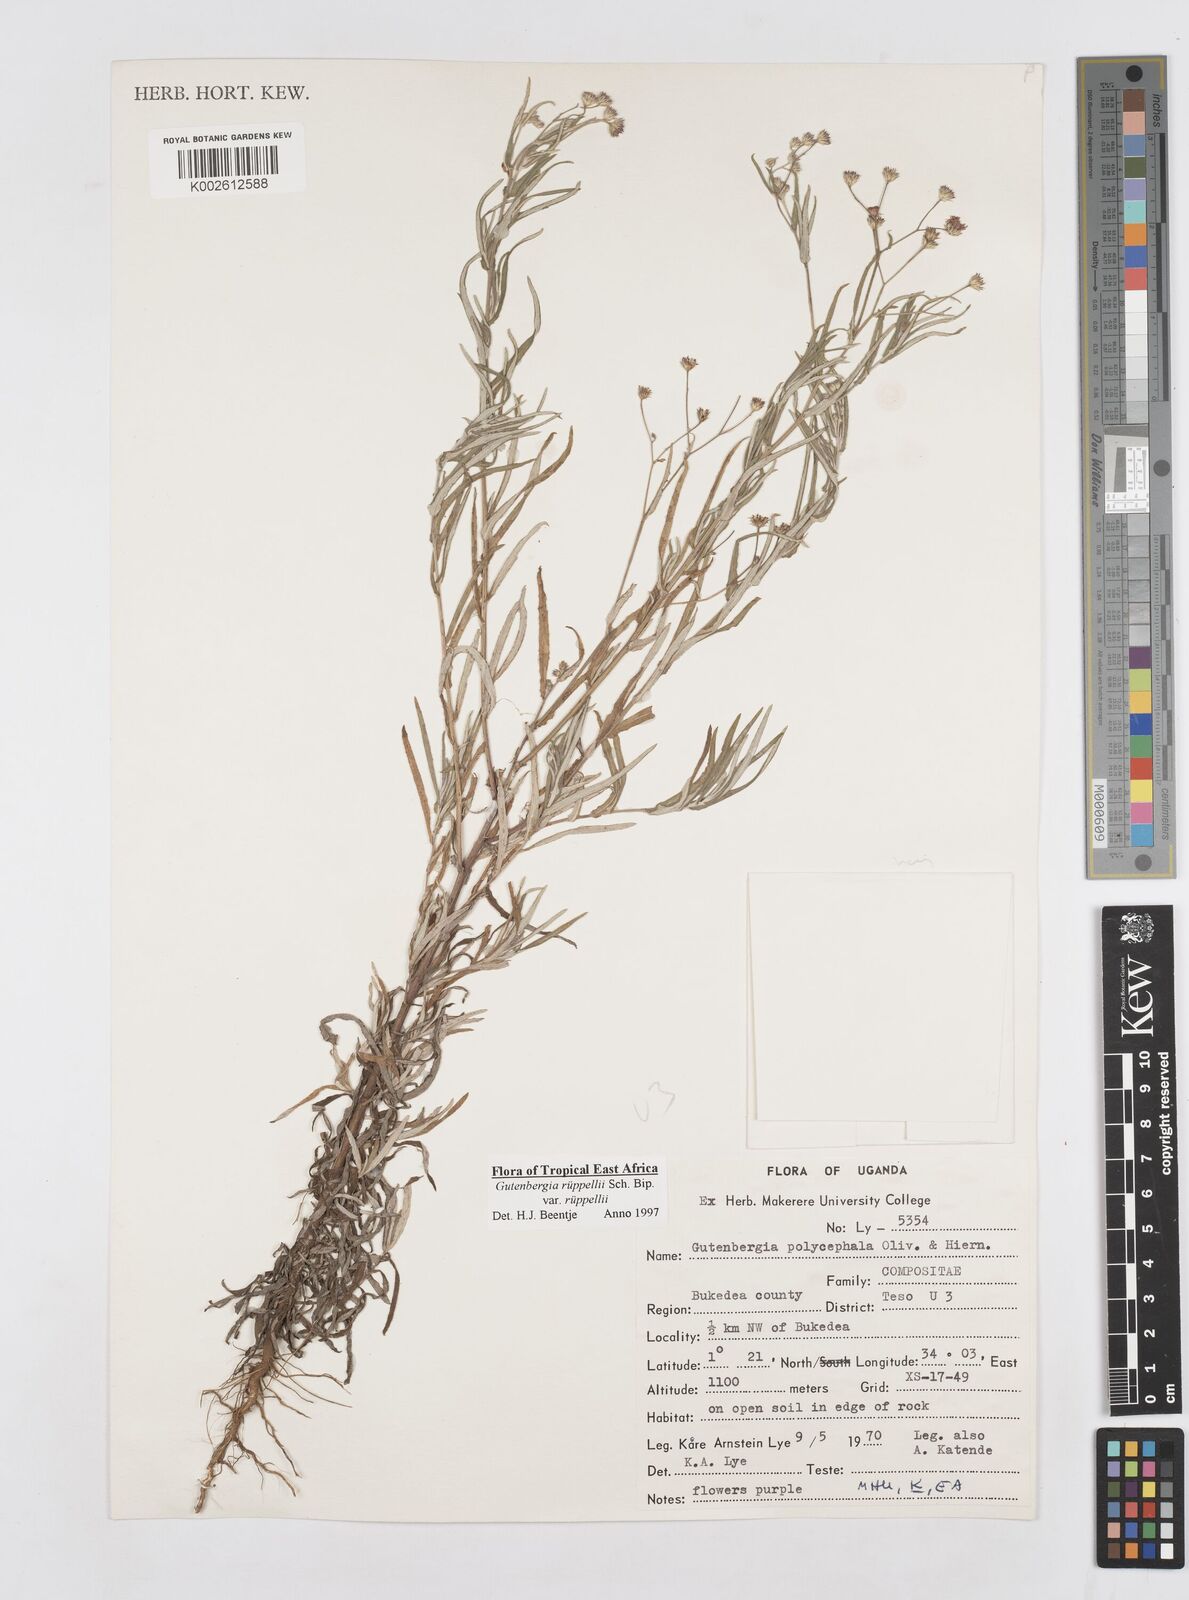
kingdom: Plantae
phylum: Tracheophyta
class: Magnoliopsida
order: Asterales
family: Asteraceae
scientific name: Asteraceae
